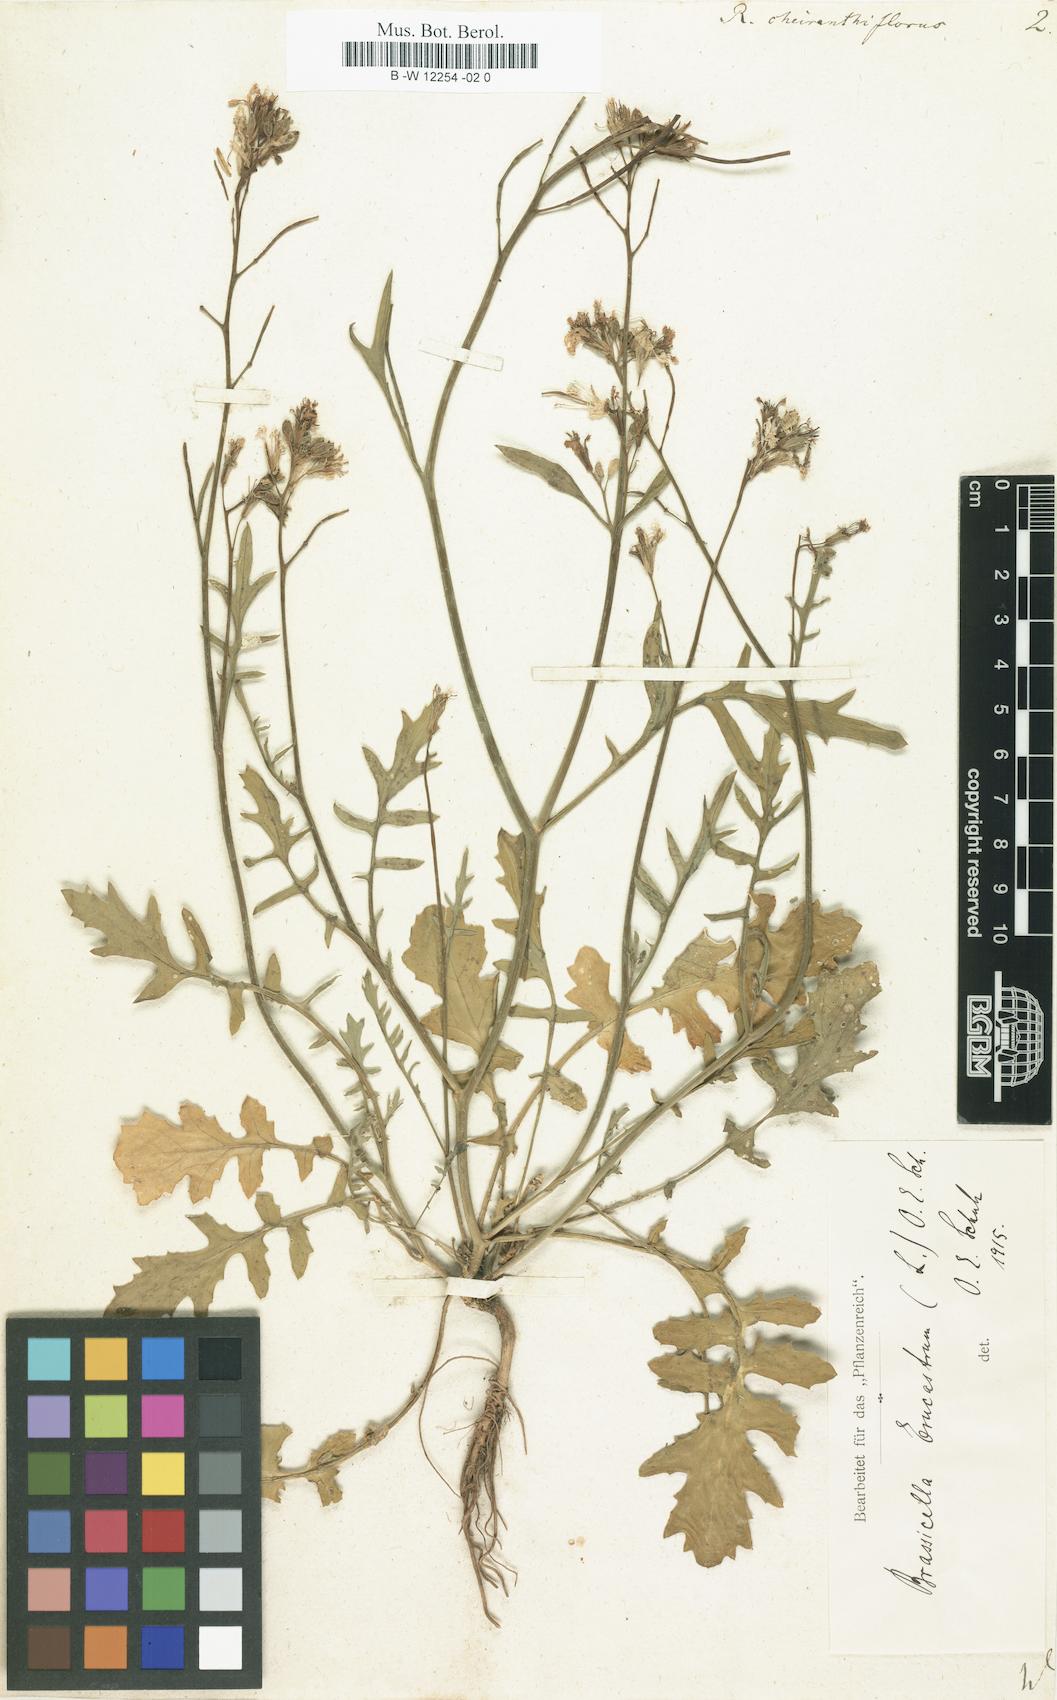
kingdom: Plantae
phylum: Tracheophyta
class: Magnoliopsida
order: Brassicales
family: Brassicaceae
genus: Coincya
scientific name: Coincya monensis
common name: Star-mustard
